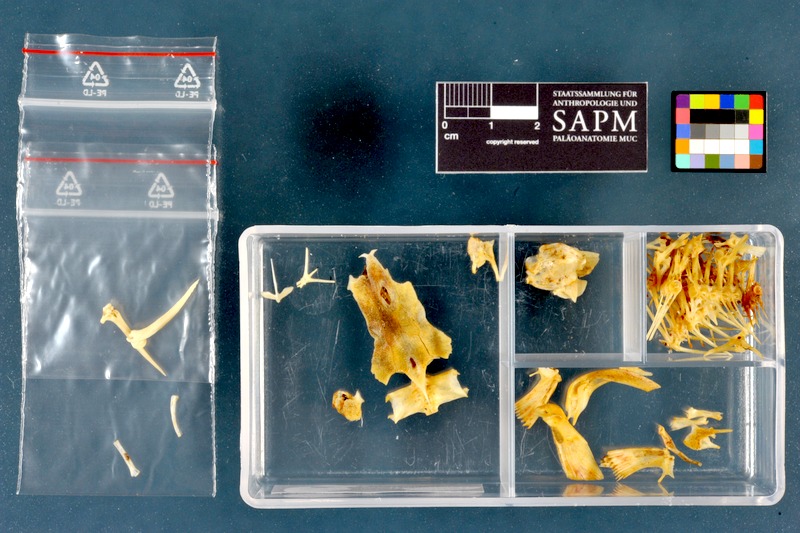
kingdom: Animalia
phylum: Chordata
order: Siluriformes
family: Heteropneustidae
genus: Heteropneustes
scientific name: Heteropneustes fossilis
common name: Stinging catfish
